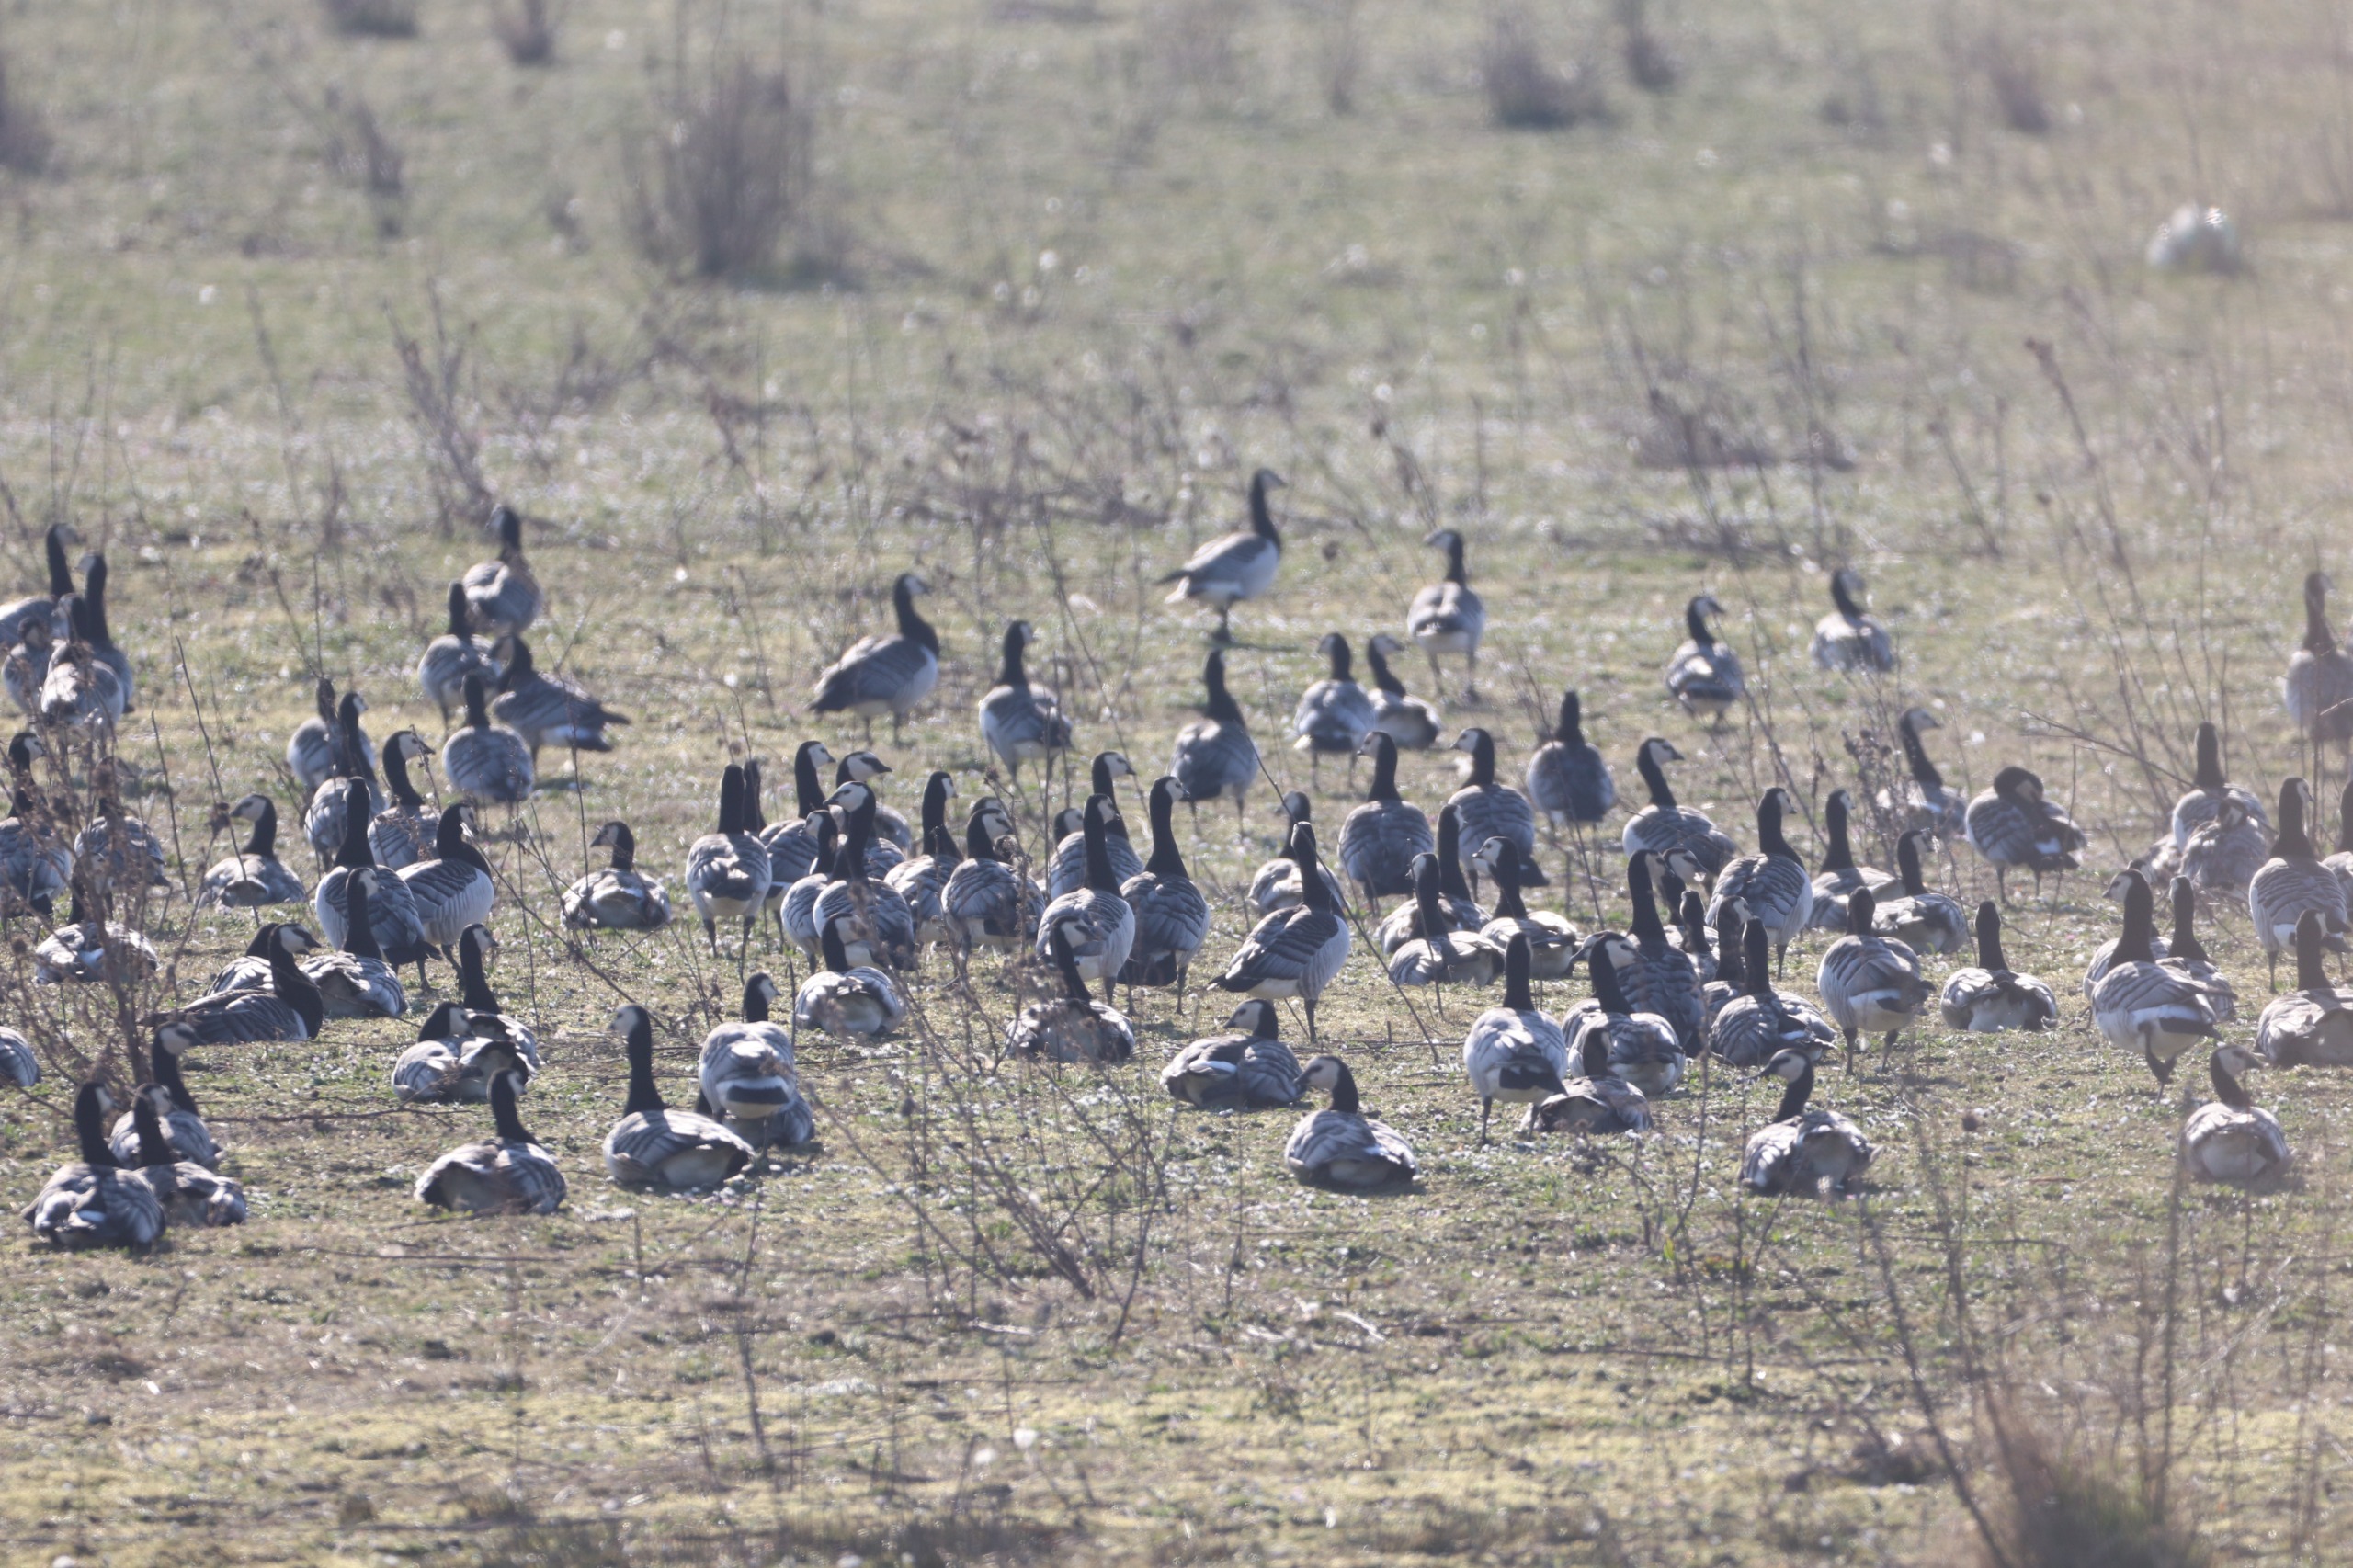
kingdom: Animalia
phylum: Chordata
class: Aves
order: Anseriformes
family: Anatidae
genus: Branta
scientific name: Branta leucopsis
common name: Bramgås
